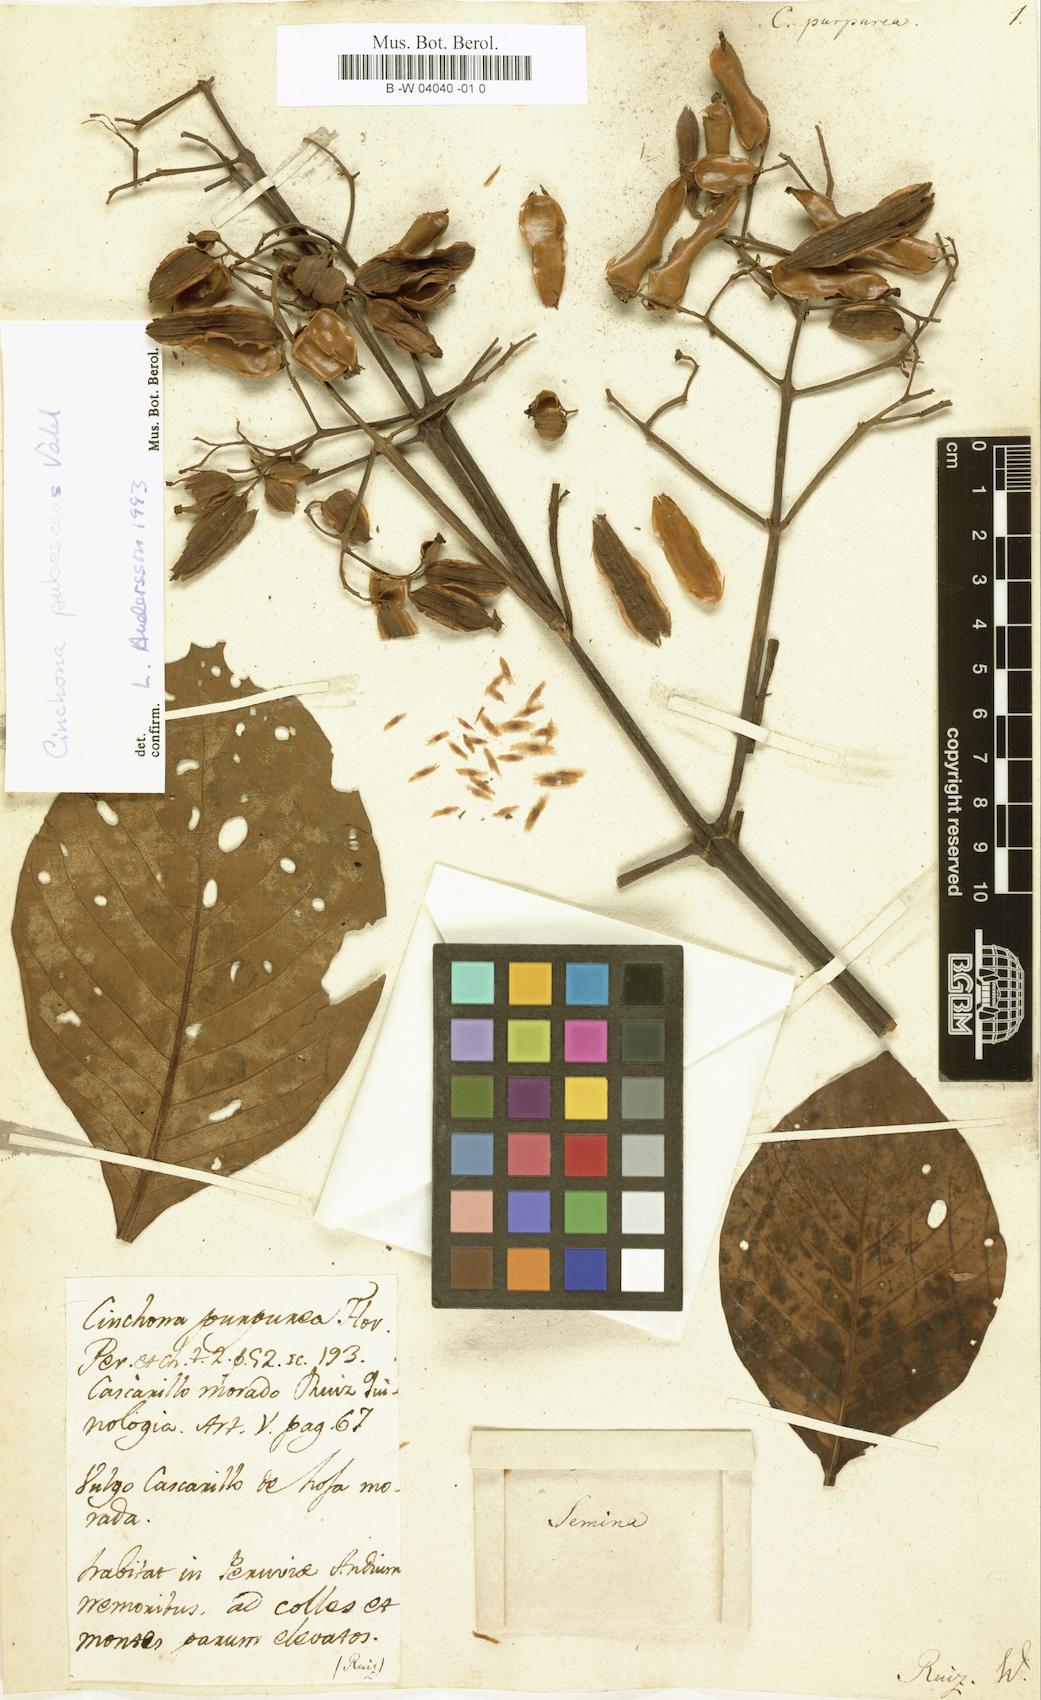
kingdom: Plantae
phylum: Tracheophyta
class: Magnoliopsida
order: Gentianales
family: Rubiaceae
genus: Cinchona
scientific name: Cinchona pubescens
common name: Quinine
